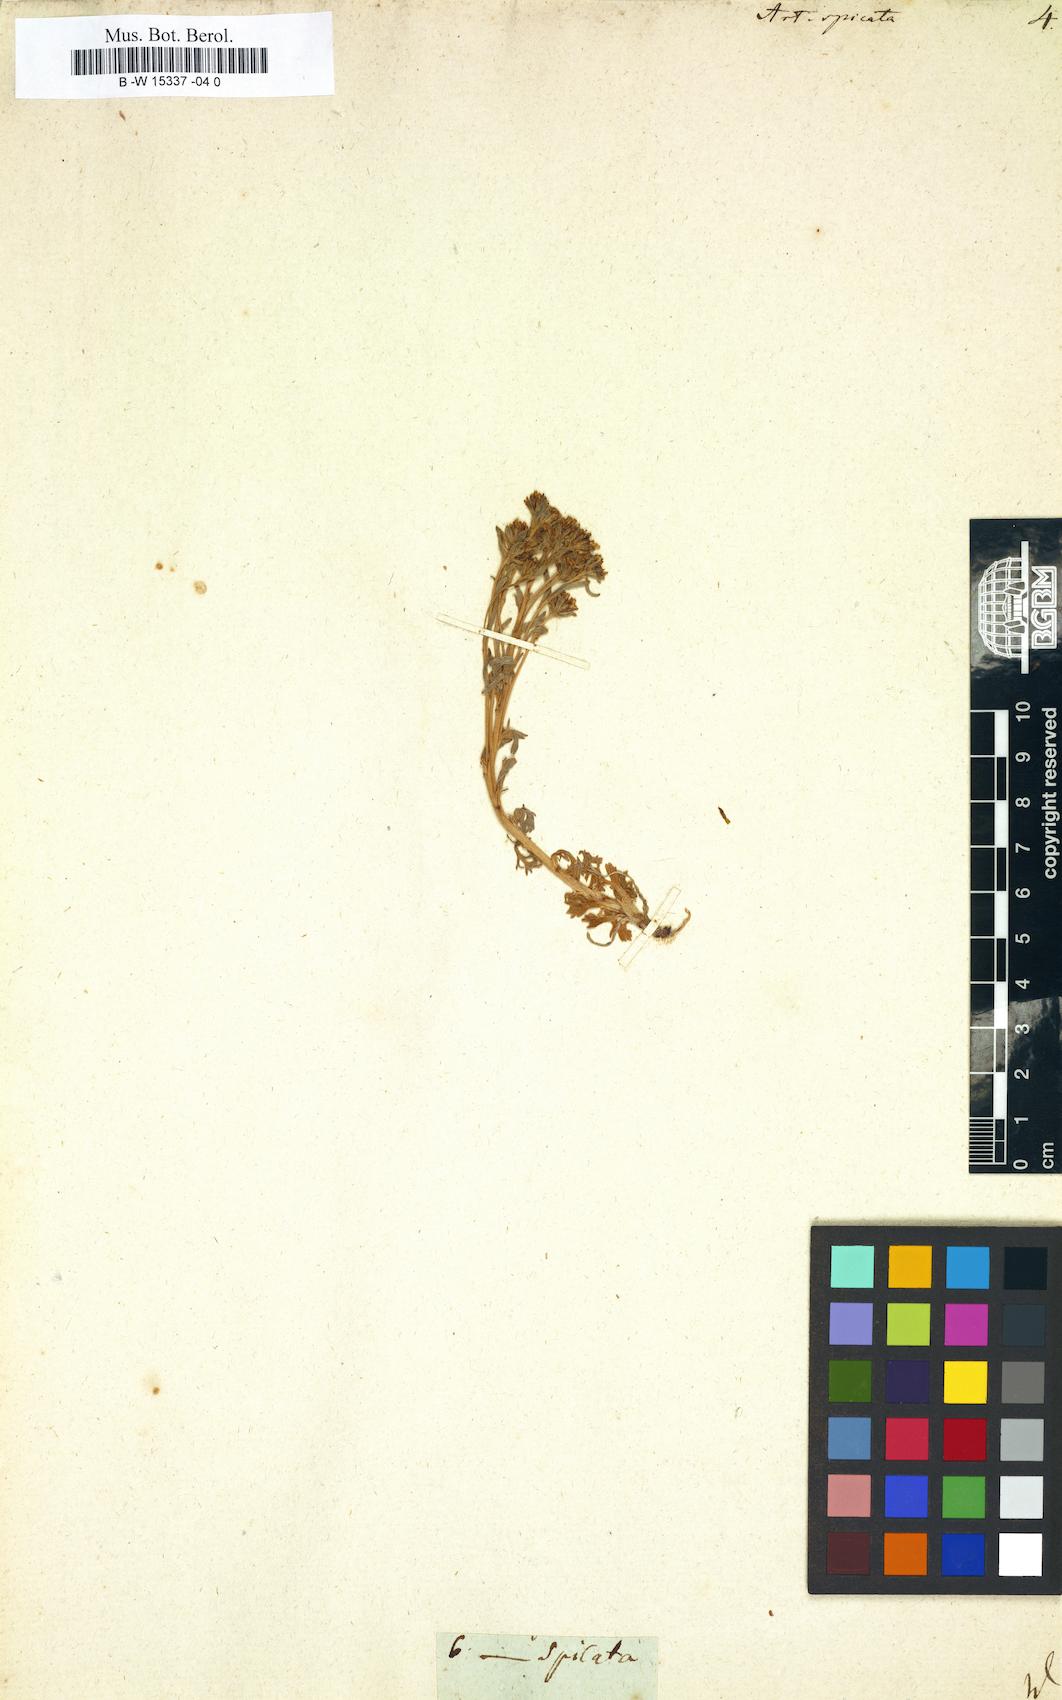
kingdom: Plantae
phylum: Tracheophyta
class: Magnoliopsida
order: Asterales
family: Asteraceae
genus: Artemisia
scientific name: Artemisia genipi
